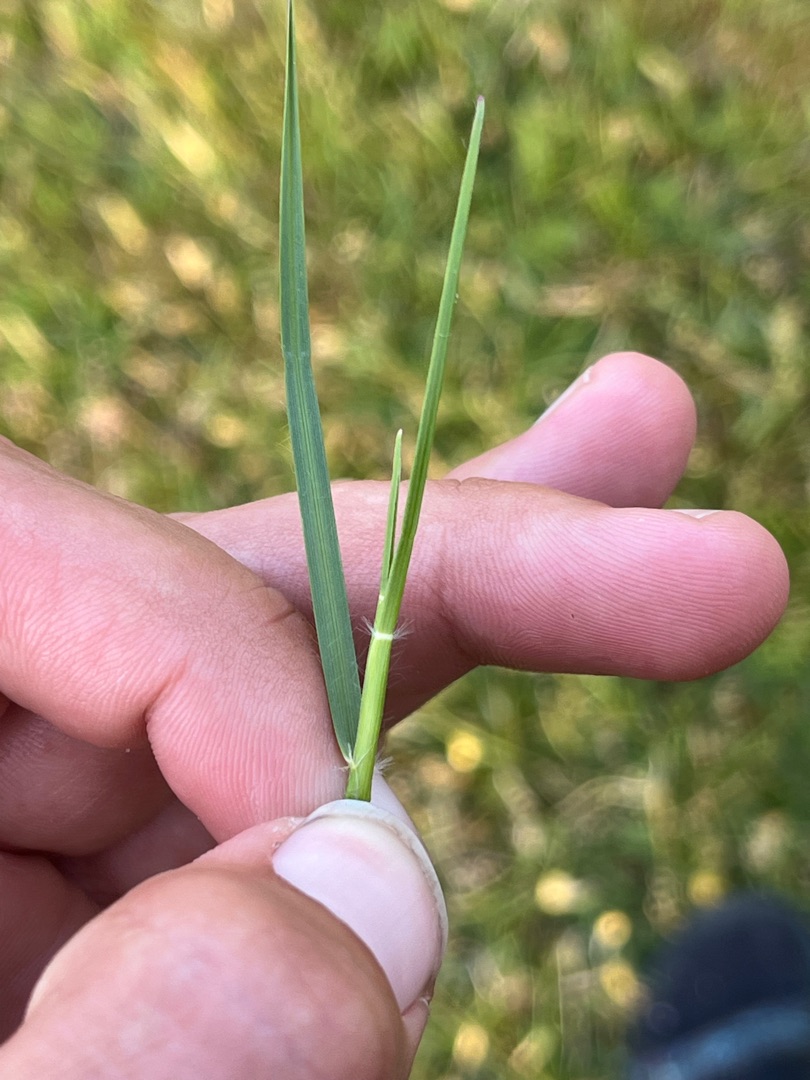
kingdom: Plantae
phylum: Tracheophyta
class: Liliopsida
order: Poales
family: Poaceae
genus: Danthonia
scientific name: Danthonia decumbens
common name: Tandbælg
